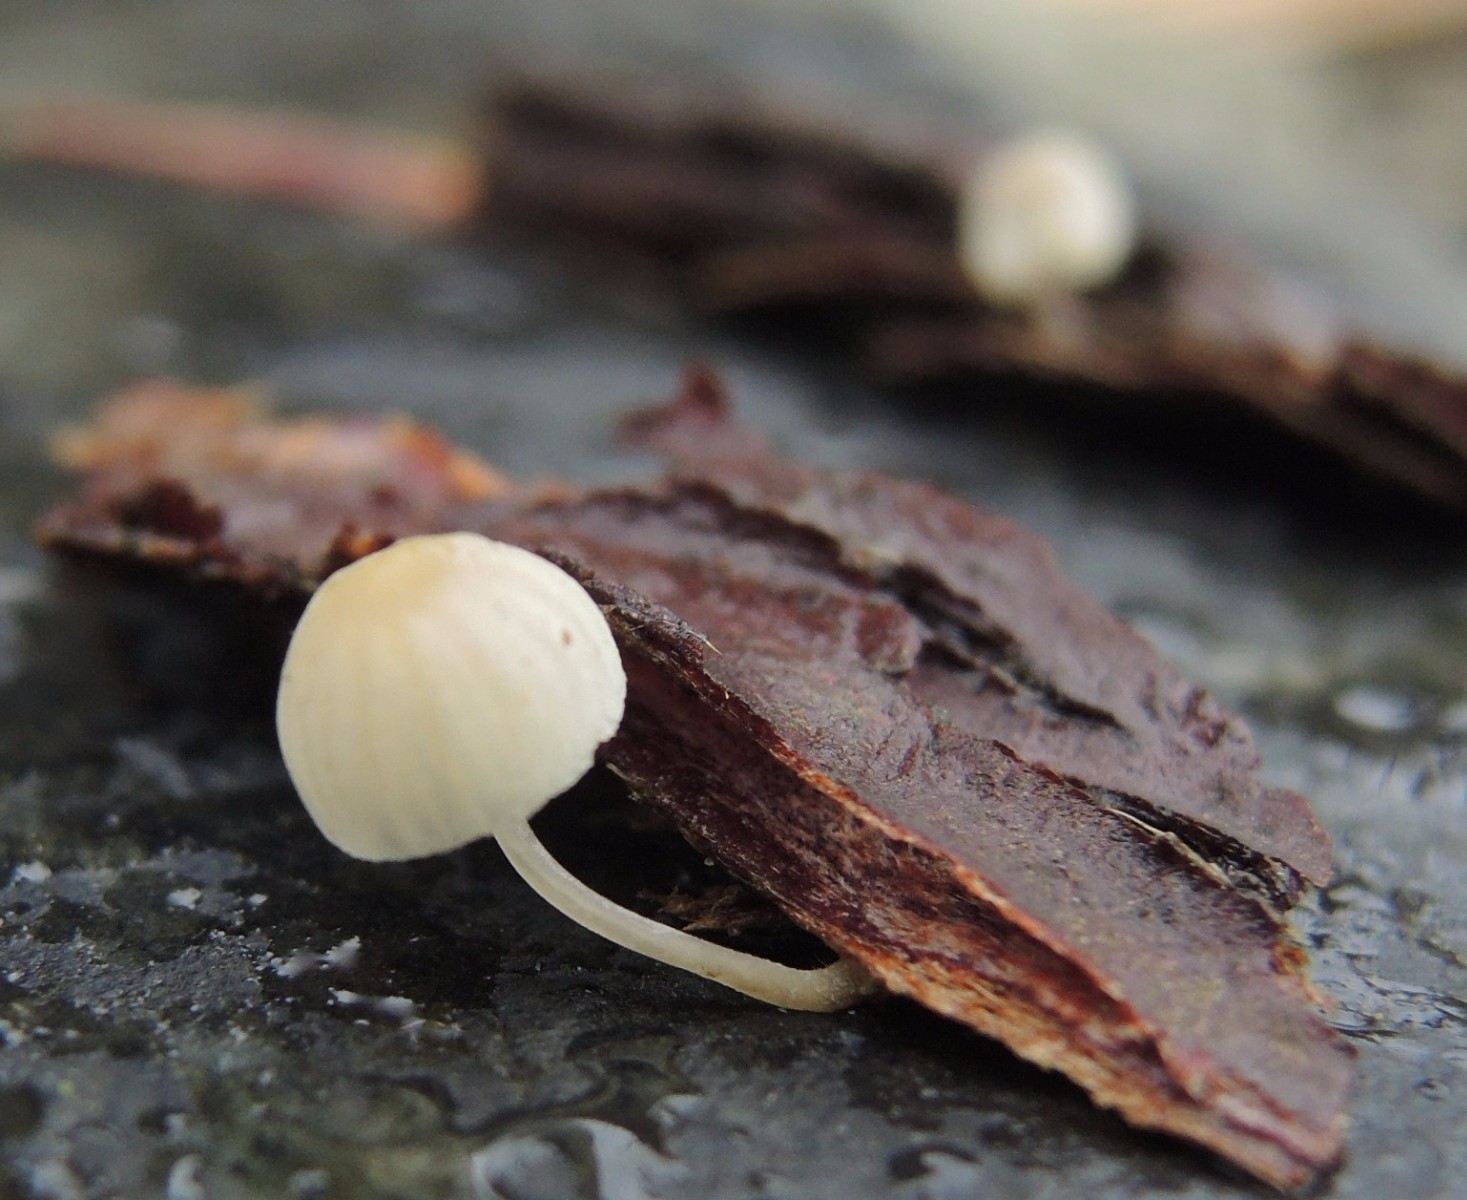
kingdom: Fungi
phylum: Basidiomycota
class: Agaricomycetes
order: Agaricales
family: Mycenaceae
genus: Mycena
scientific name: Mycena xantholeuca
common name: cremehvid huesvamp
